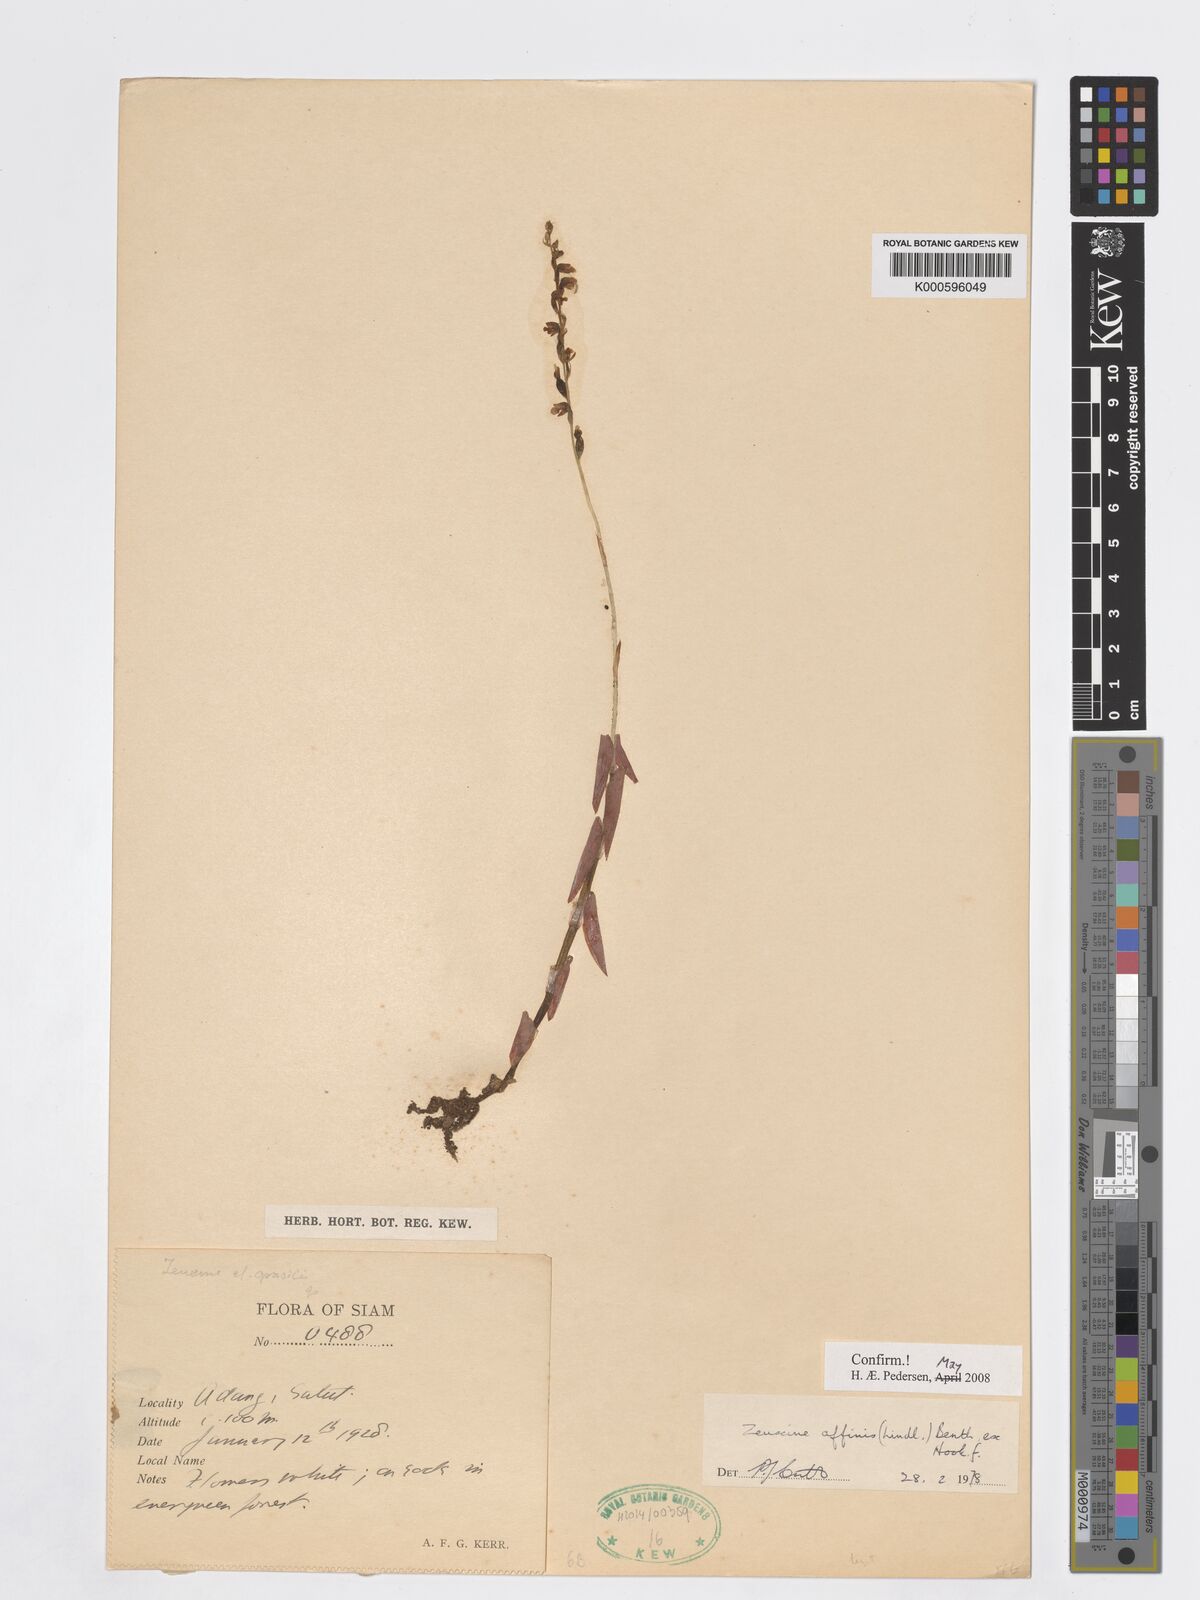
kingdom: Plantae
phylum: Tracheophyta
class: Liliopsida
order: Asparagales
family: Orchidaceae
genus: Zeuxine
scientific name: Zeuxine affinis
